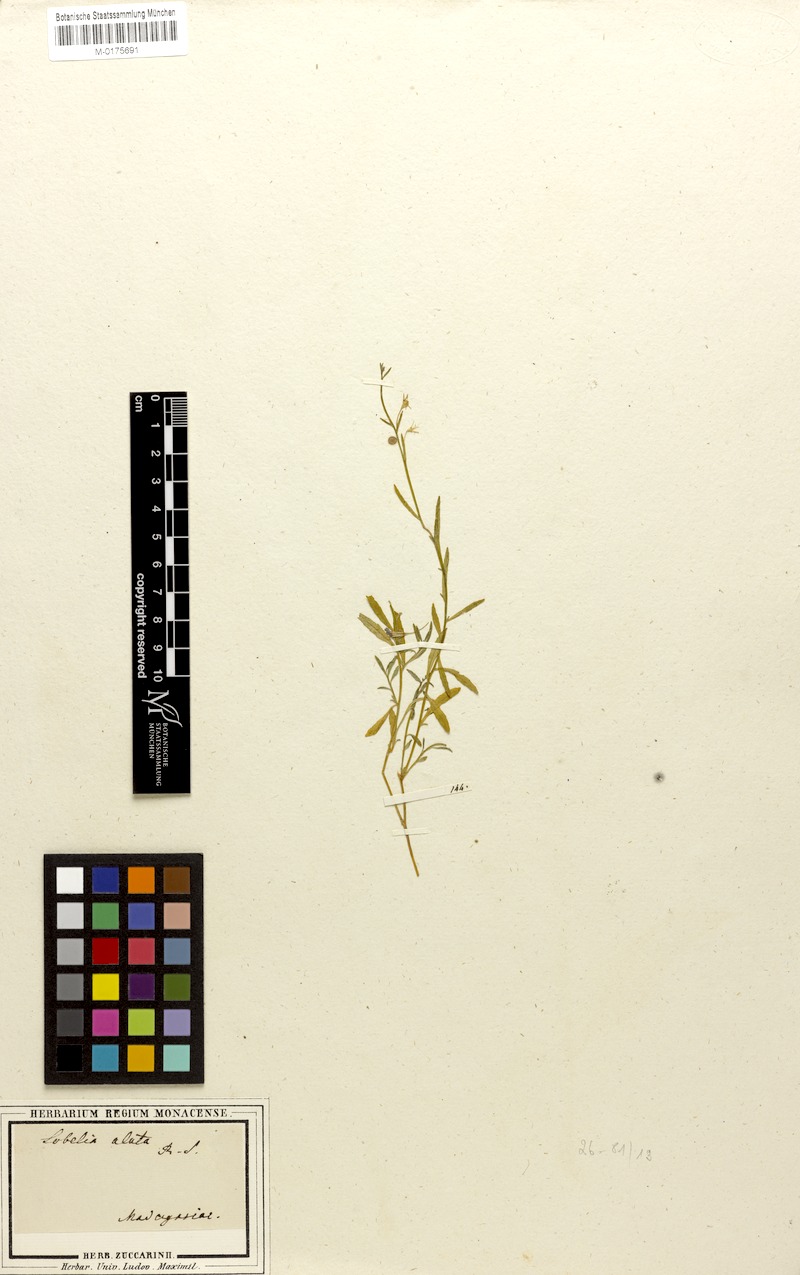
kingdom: Plantae
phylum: Tracheophyta
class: Magnoliopsida
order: Asterales
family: Campanulaceae
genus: Lobelia
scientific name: Lobelia anceps
